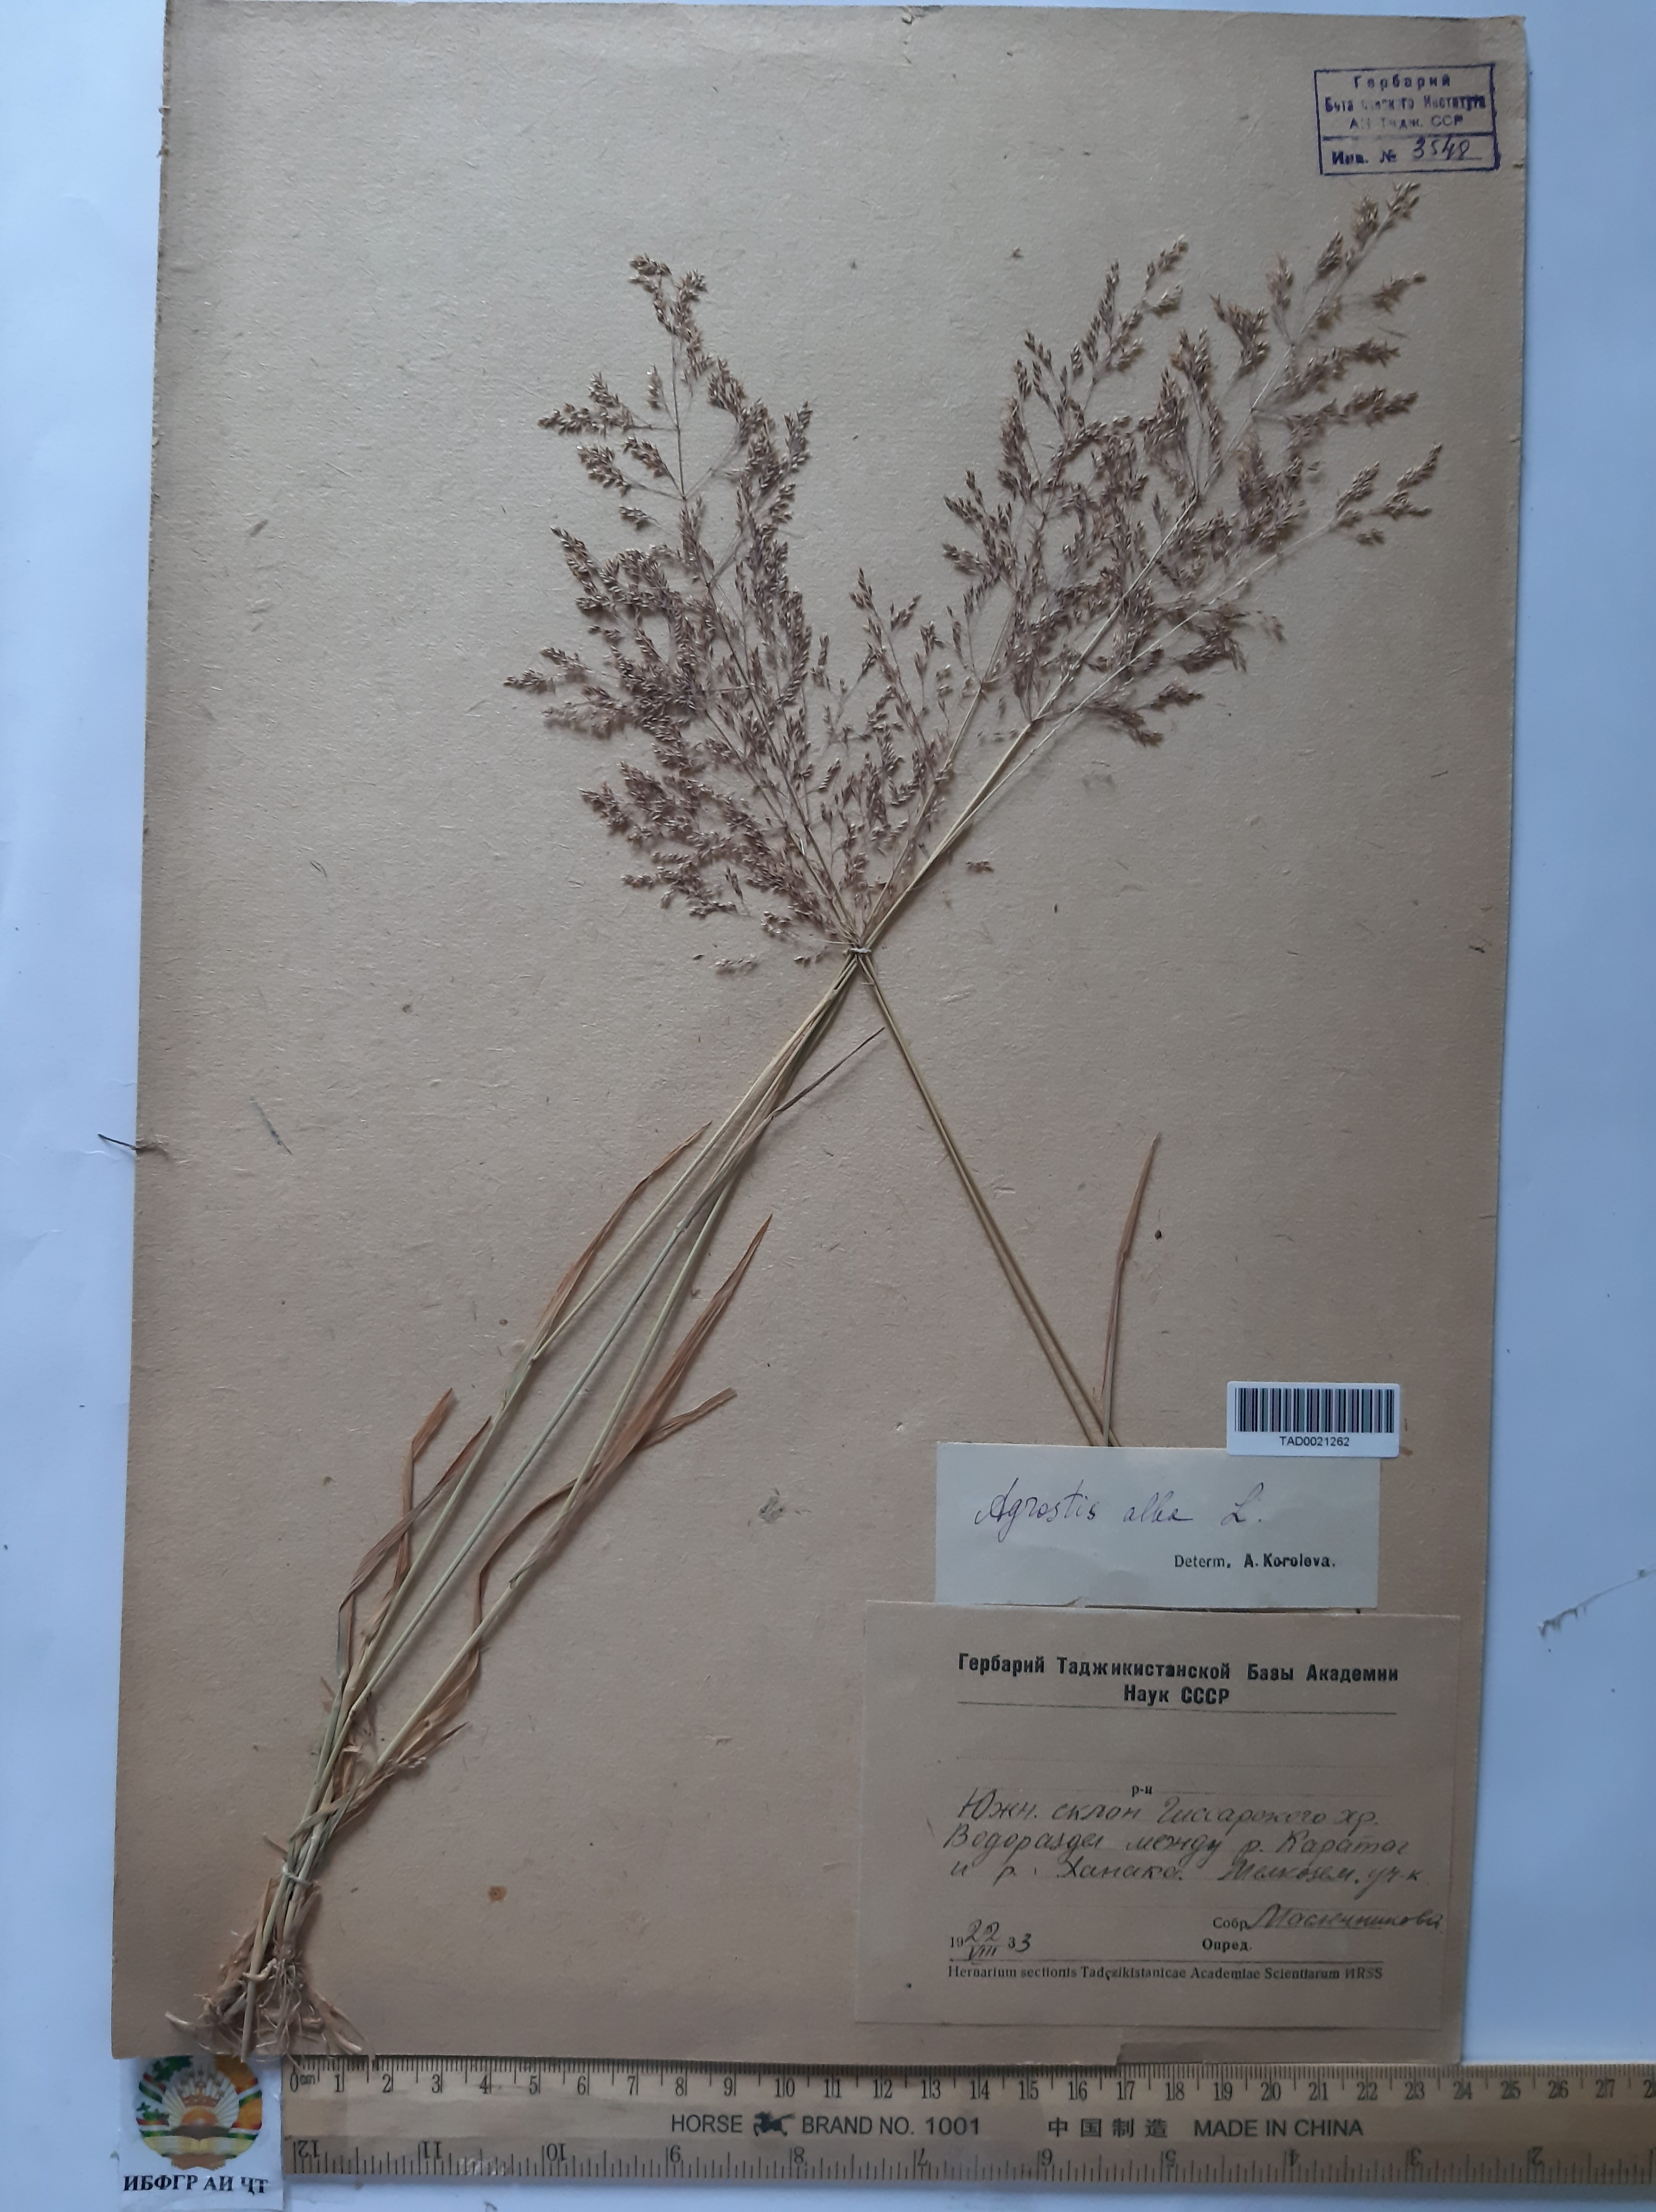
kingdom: Plantae
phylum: Tracheophyta
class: Liliopsida
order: Poales
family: Poaceae
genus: Poa
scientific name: Poa nemoralis
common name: Wood bluegrass
